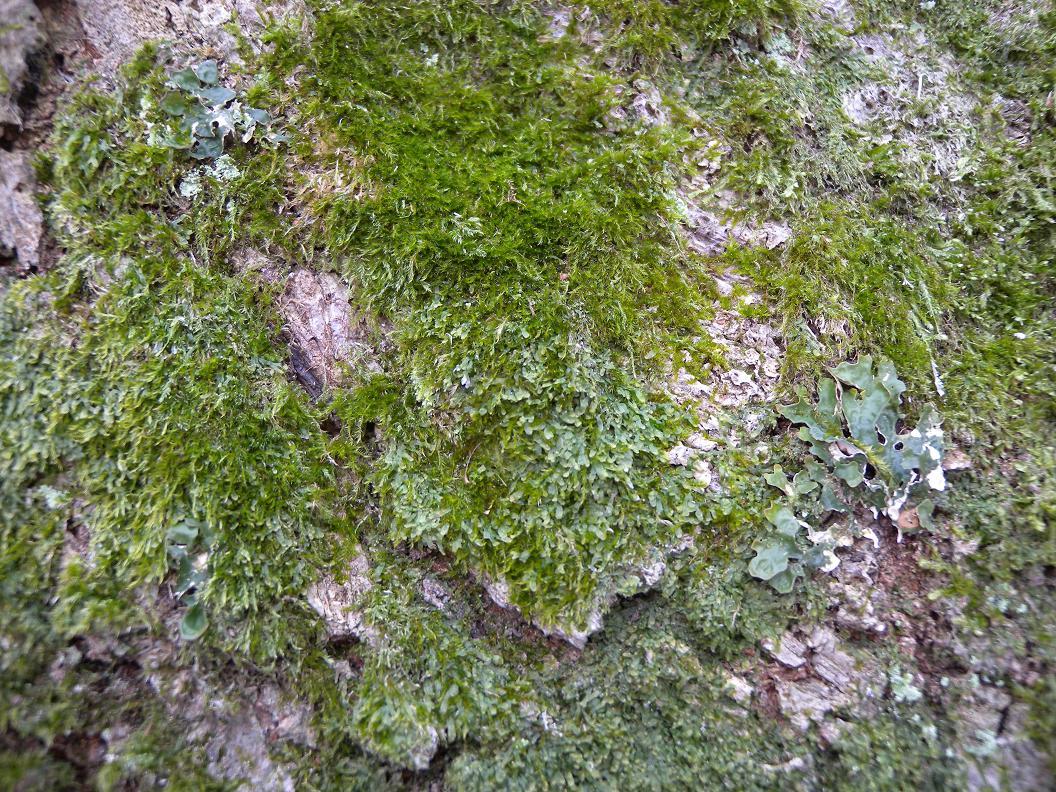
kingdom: Fungi
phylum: Ascomycota
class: Lecanoromycetes
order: Peltigerales
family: Lobariaceae
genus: Lobaria
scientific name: Lobaria pulmonaria
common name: almindelig lungelav
